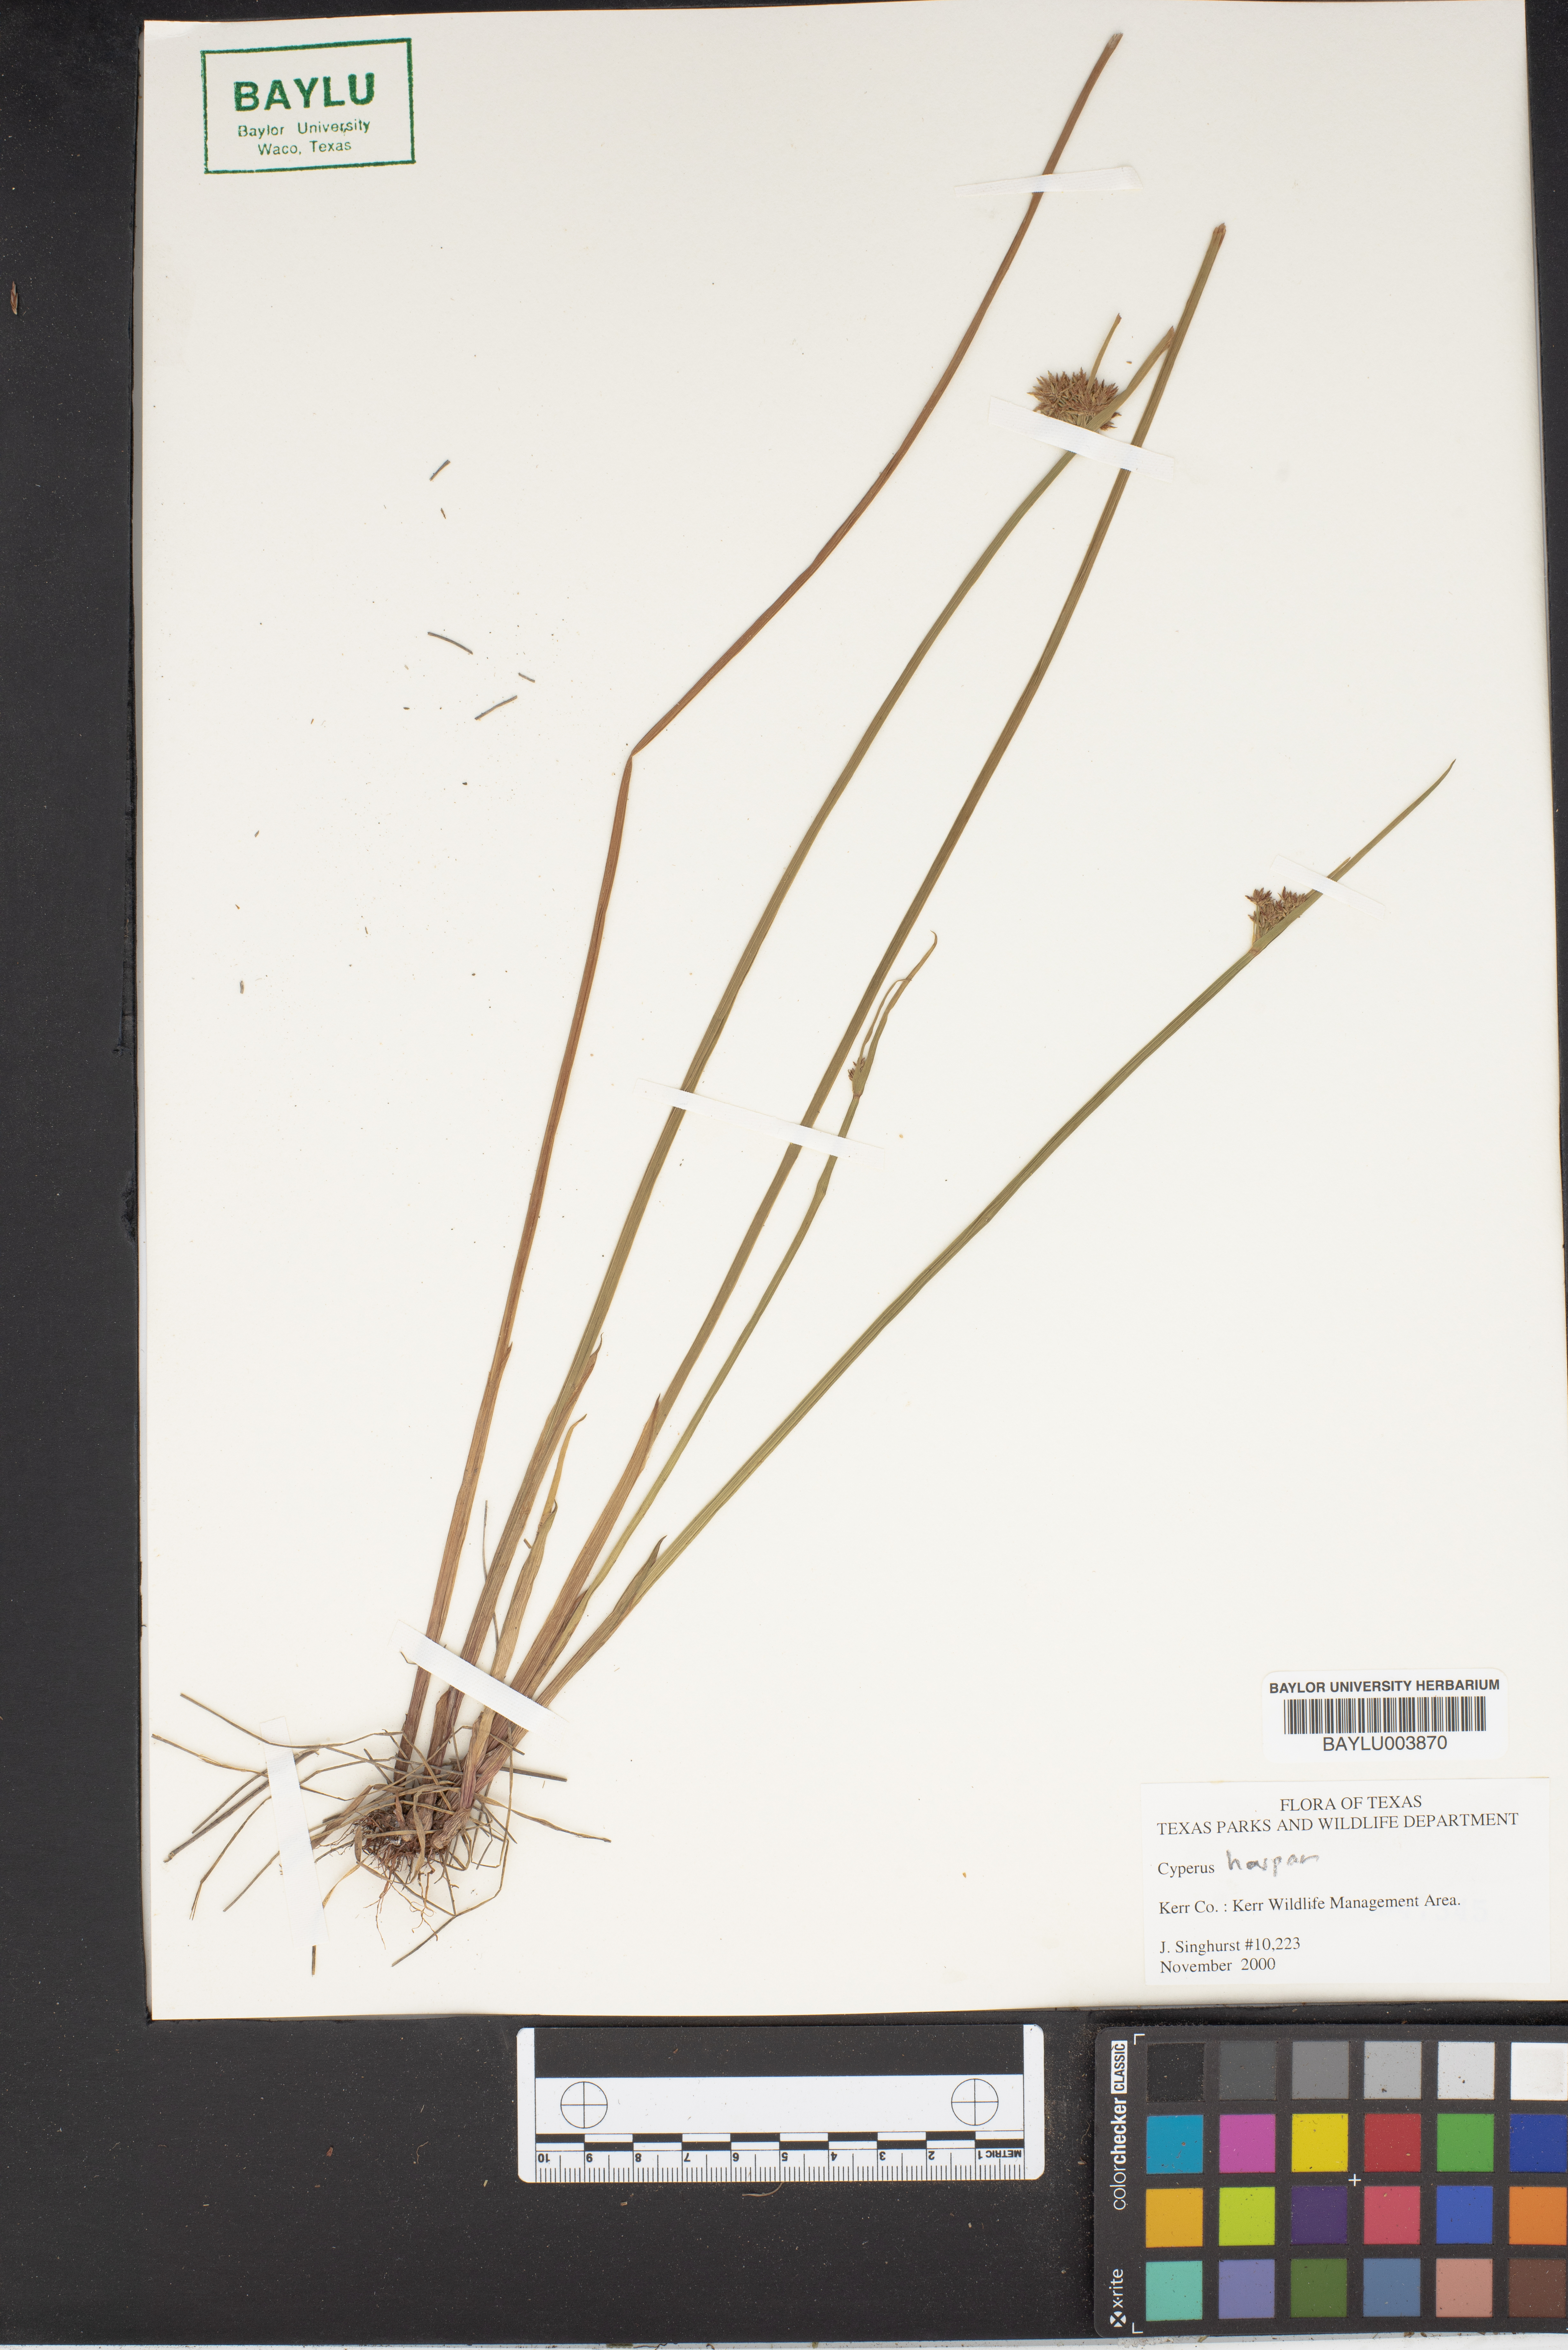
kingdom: Plantae
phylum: Tracheophyta
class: Liliopsida
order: Poales
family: Cyperaceae
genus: Cyperus
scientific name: Cyperus haspan
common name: Haspan flatsedge
